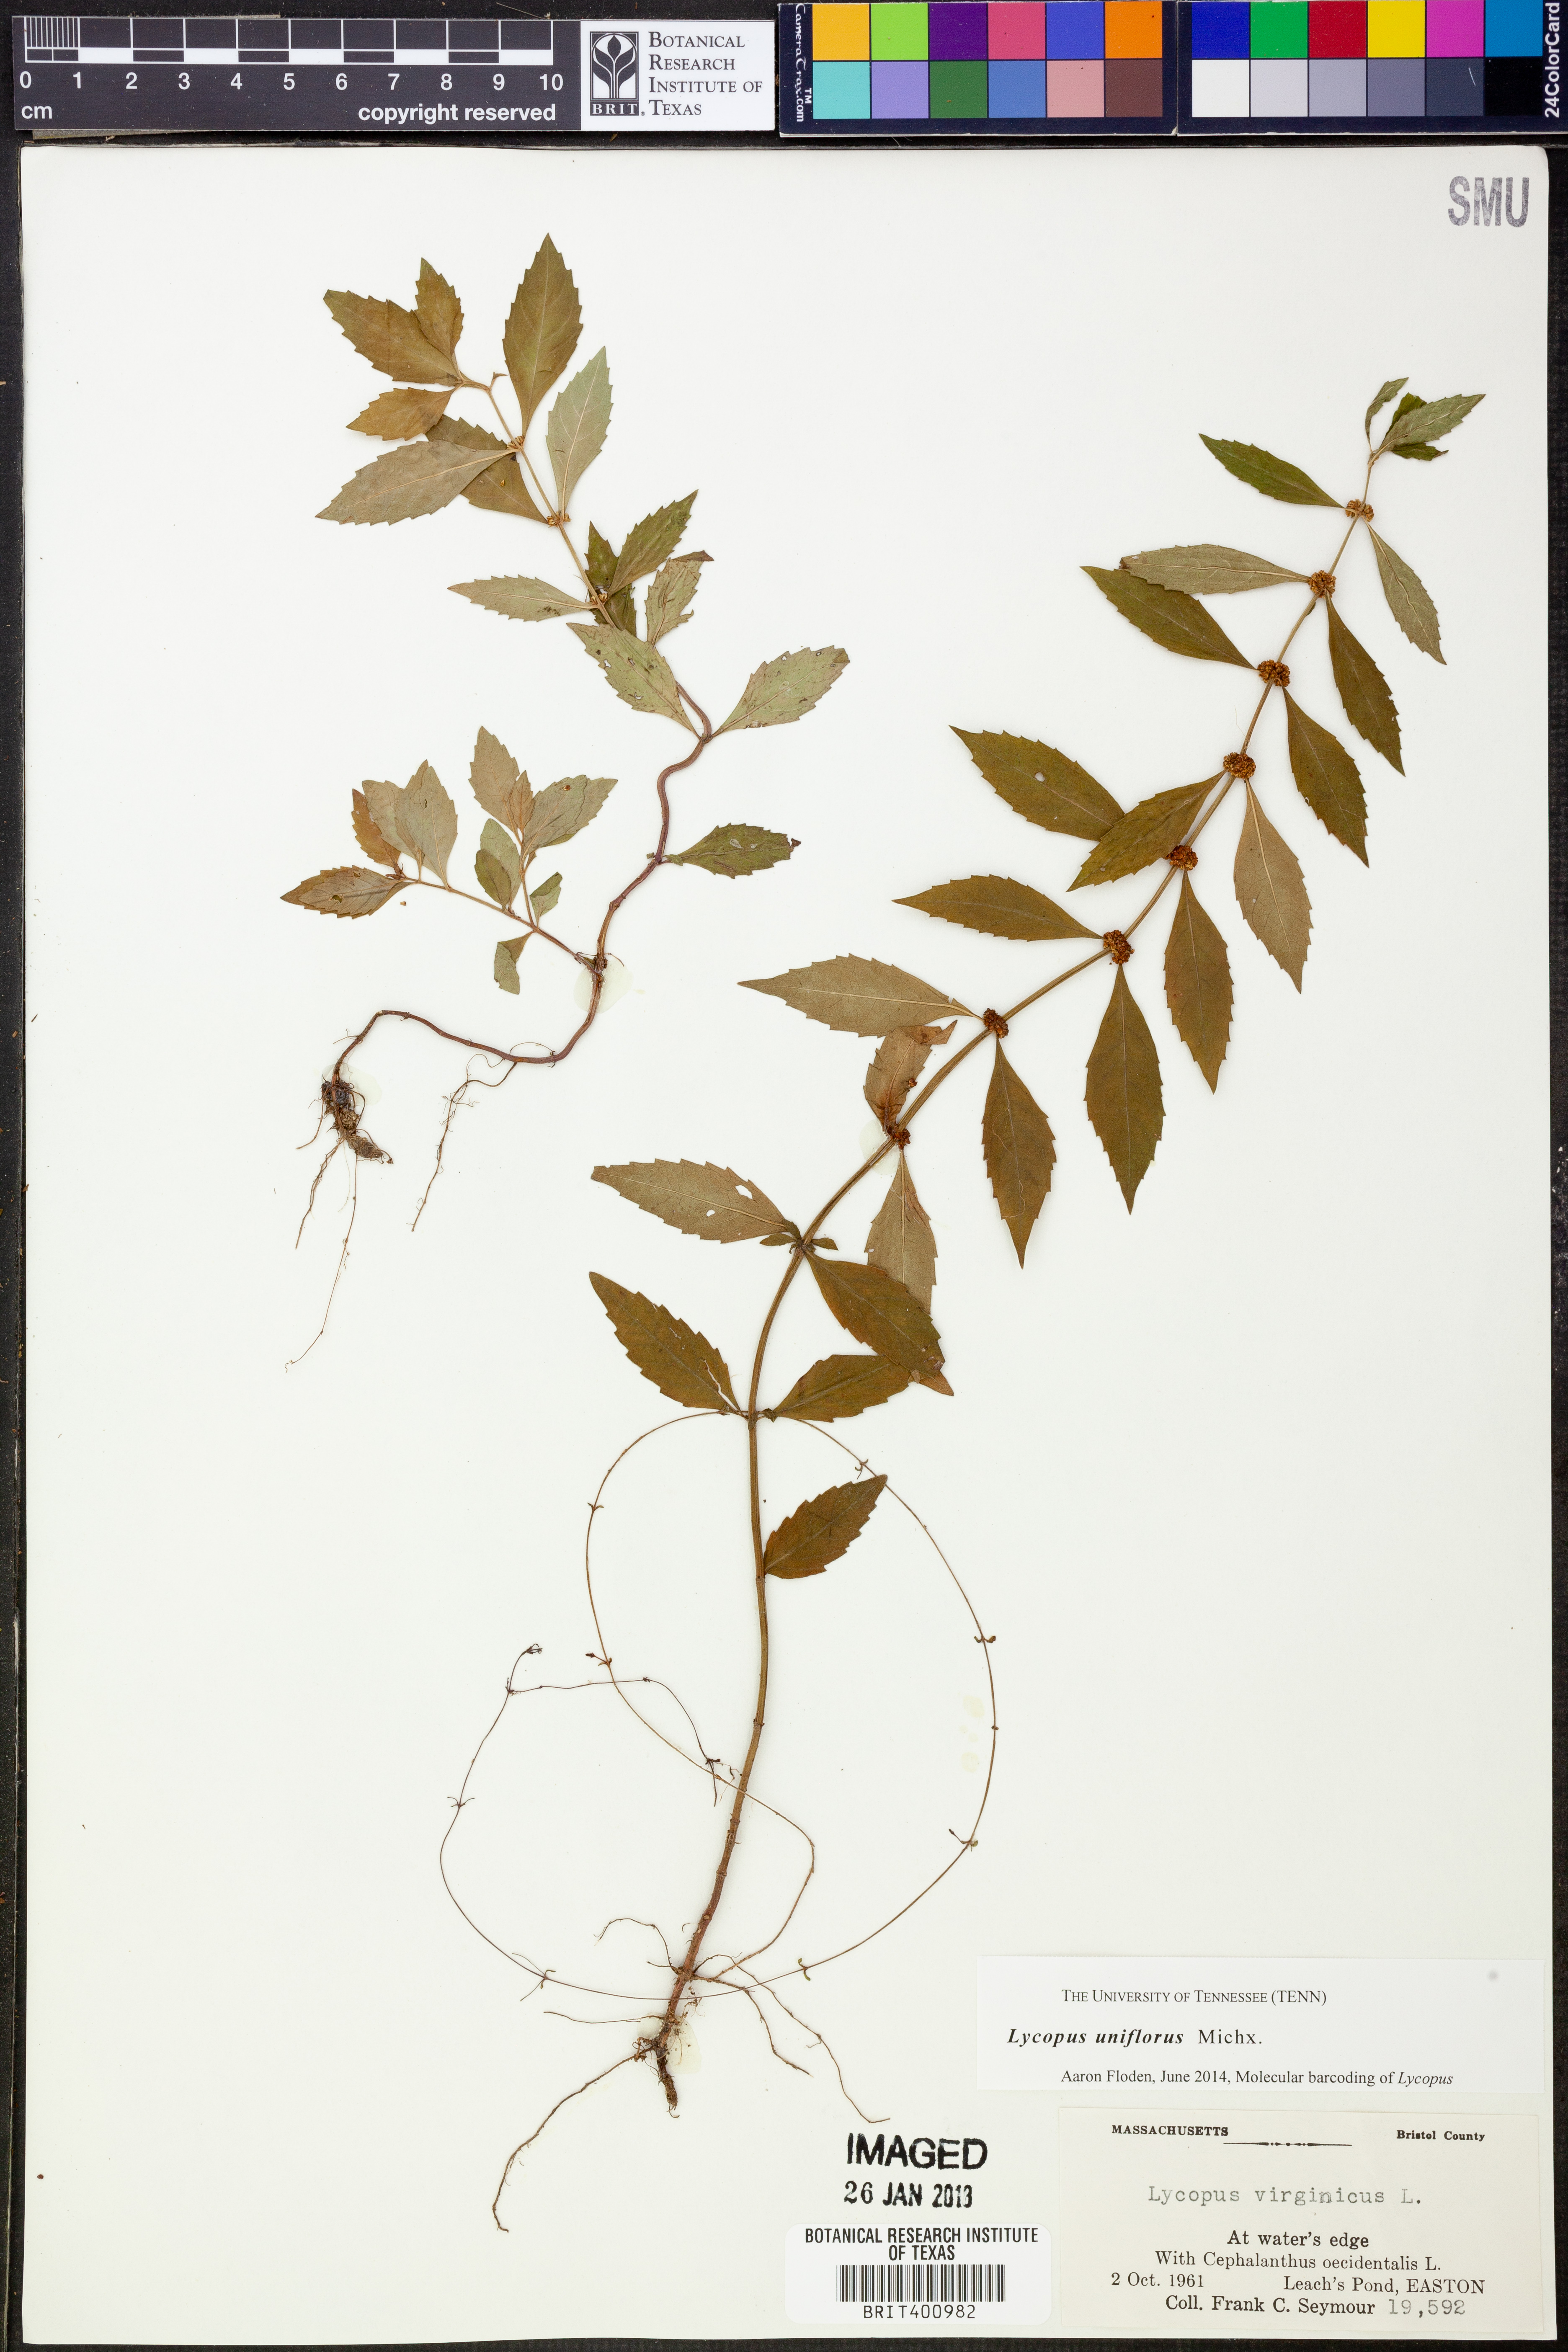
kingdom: Plantae
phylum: Tracheophyta
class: Magnoliopsida
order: Lamiales
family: Lamiaceae
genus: Lycopus
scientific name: Lycopus uniflorus
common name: Northern bugleweed
